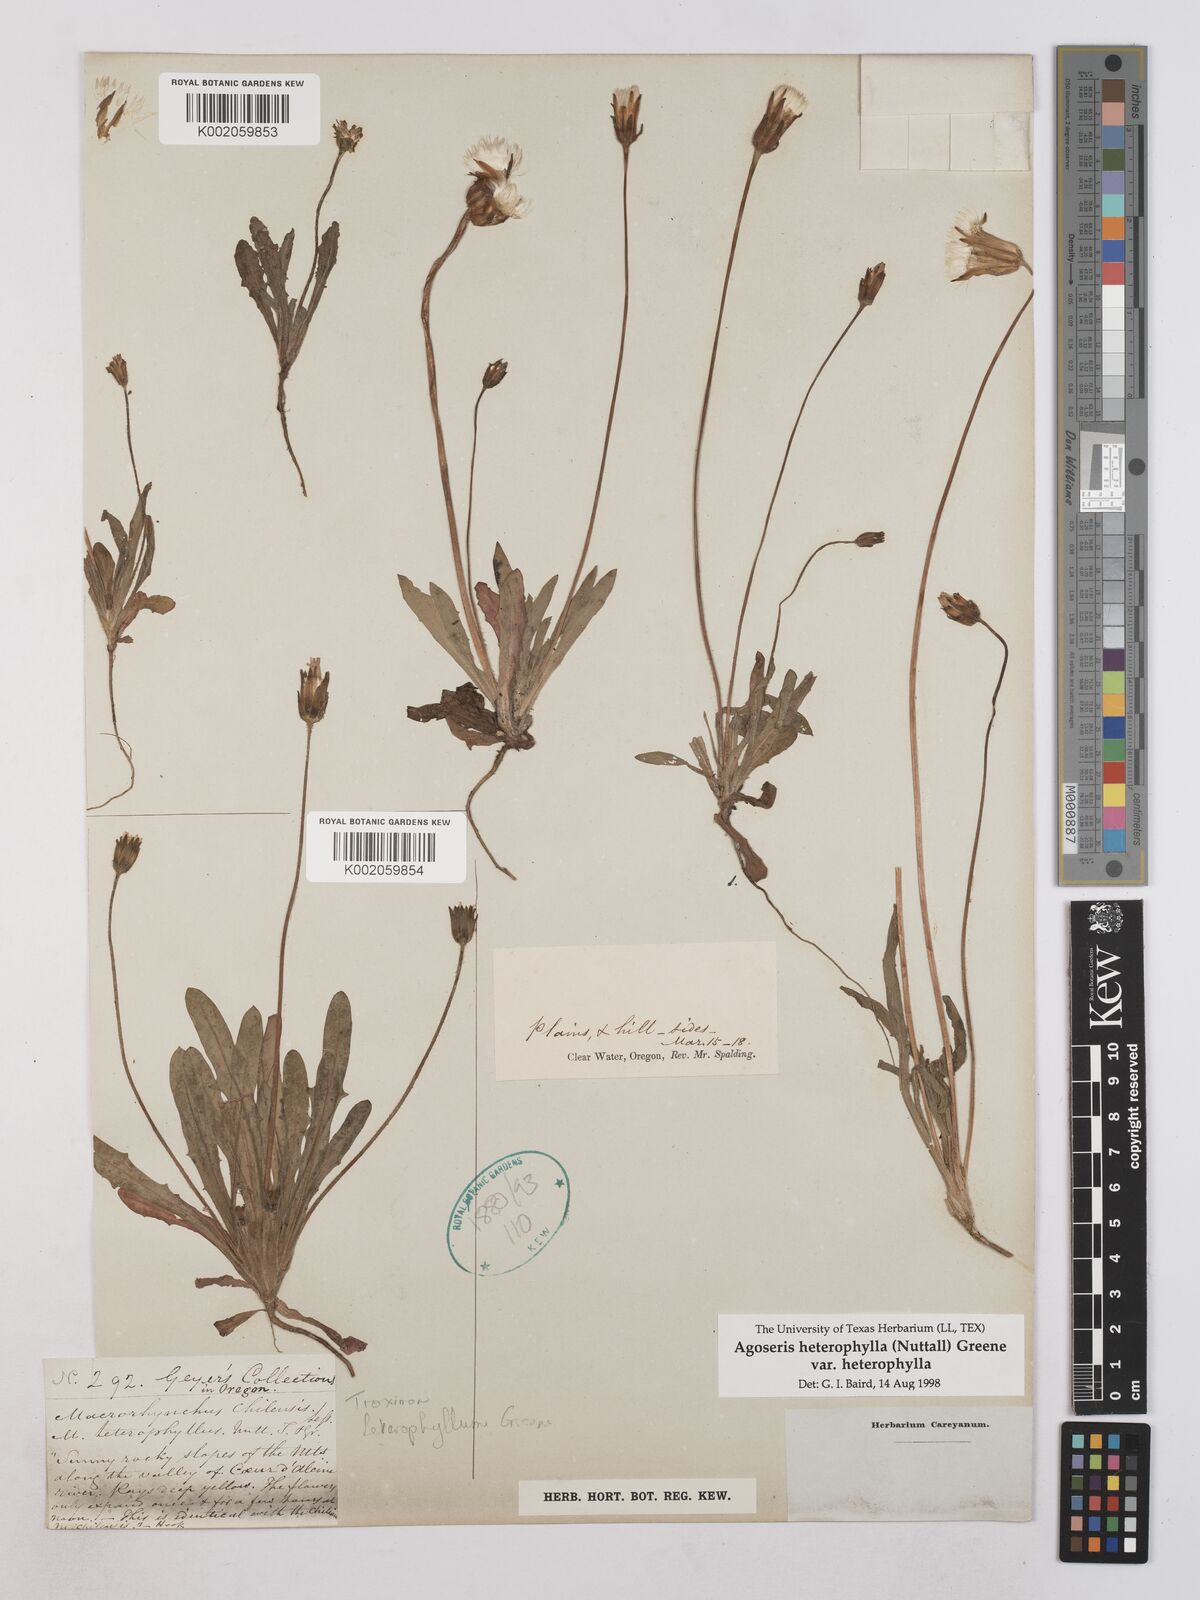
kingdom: Plantae
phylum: Tracheophyta
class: Magnoliopsida
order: Asterales
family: Asteraceae
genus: Agoseris
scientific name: Agoseris heterophylla
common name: Annual agoseris
